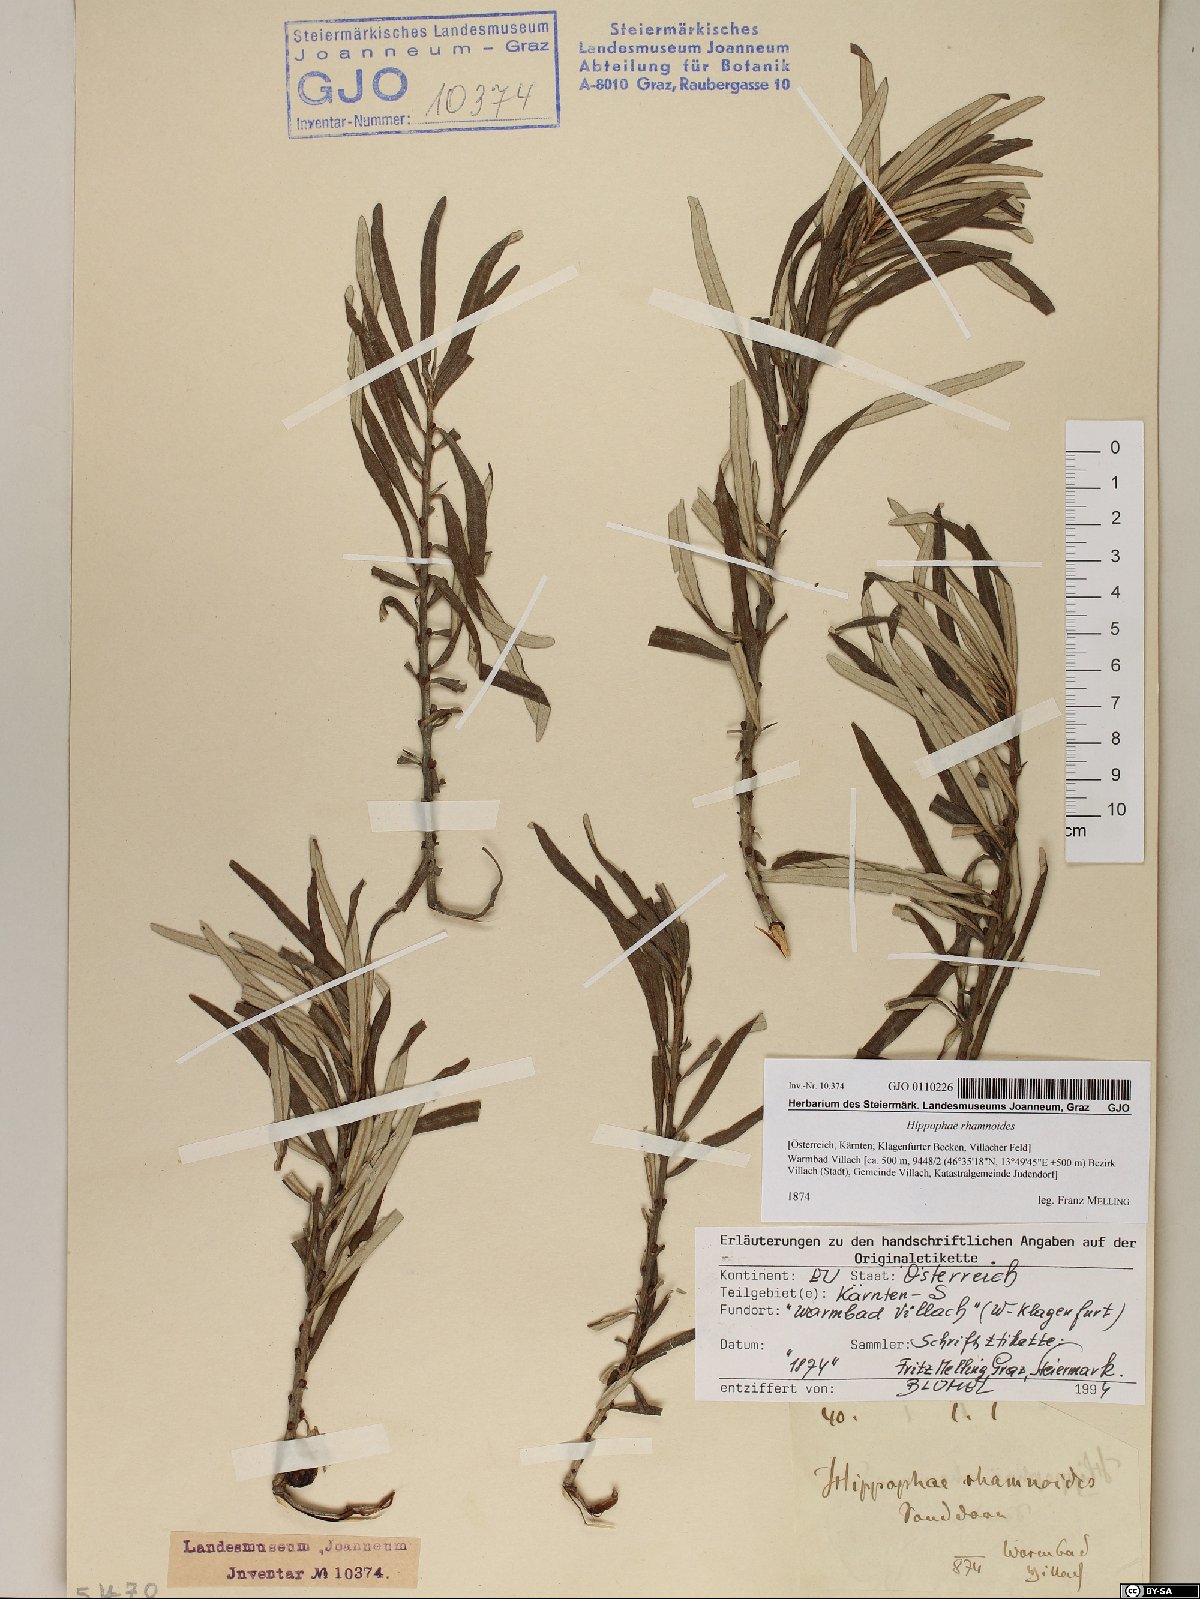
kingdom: Plantae
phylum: Tracheophyta
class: Magnoliopsida
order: Rosales
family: Elaeagnaceae
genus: Hippophae
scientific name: Hippophae rhamnoides
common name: Sea-buckthorn
